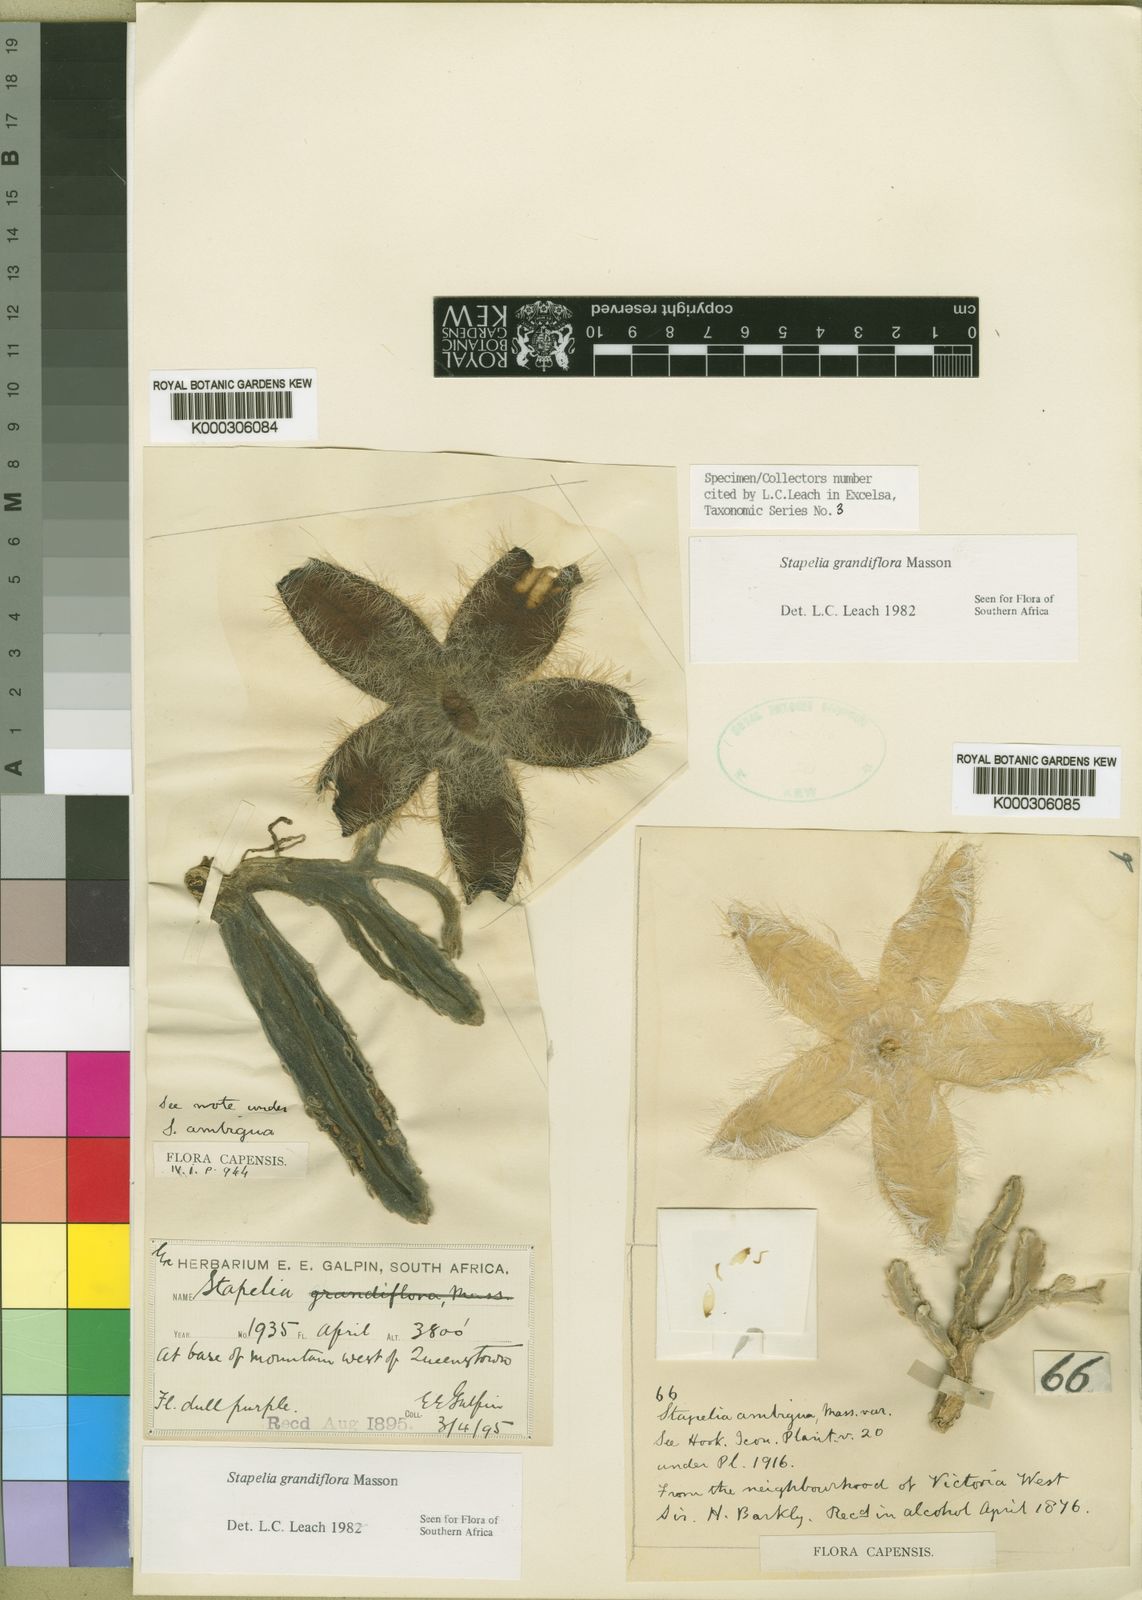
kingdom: Plantae
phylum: Tracheophyta
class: Magnoliopsida
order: Gentianales
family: Apocynaceae
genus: Ceropegia
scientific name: Ceropegia grandiflora
